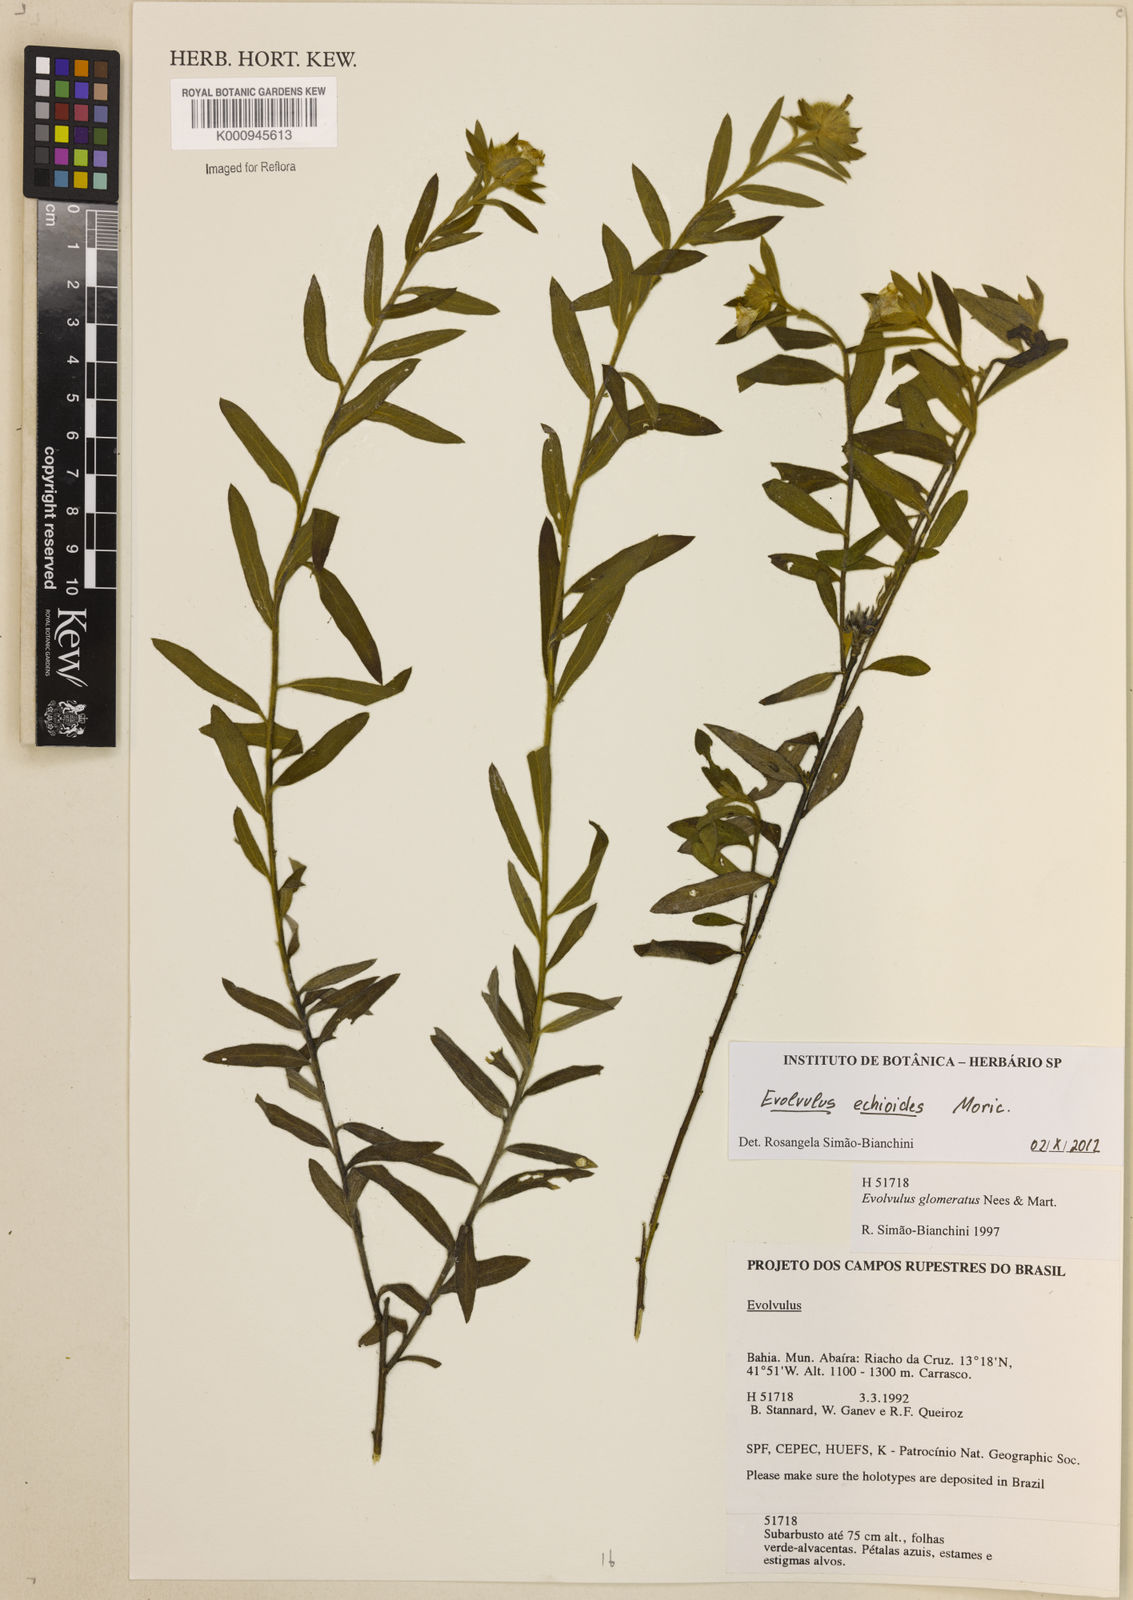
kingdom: Plantae
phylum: Tracheophyta
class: Magnoliopsida
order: Solanales
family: Convolvulaceae
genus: Evolvulus
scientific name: Evolvulus echioides
